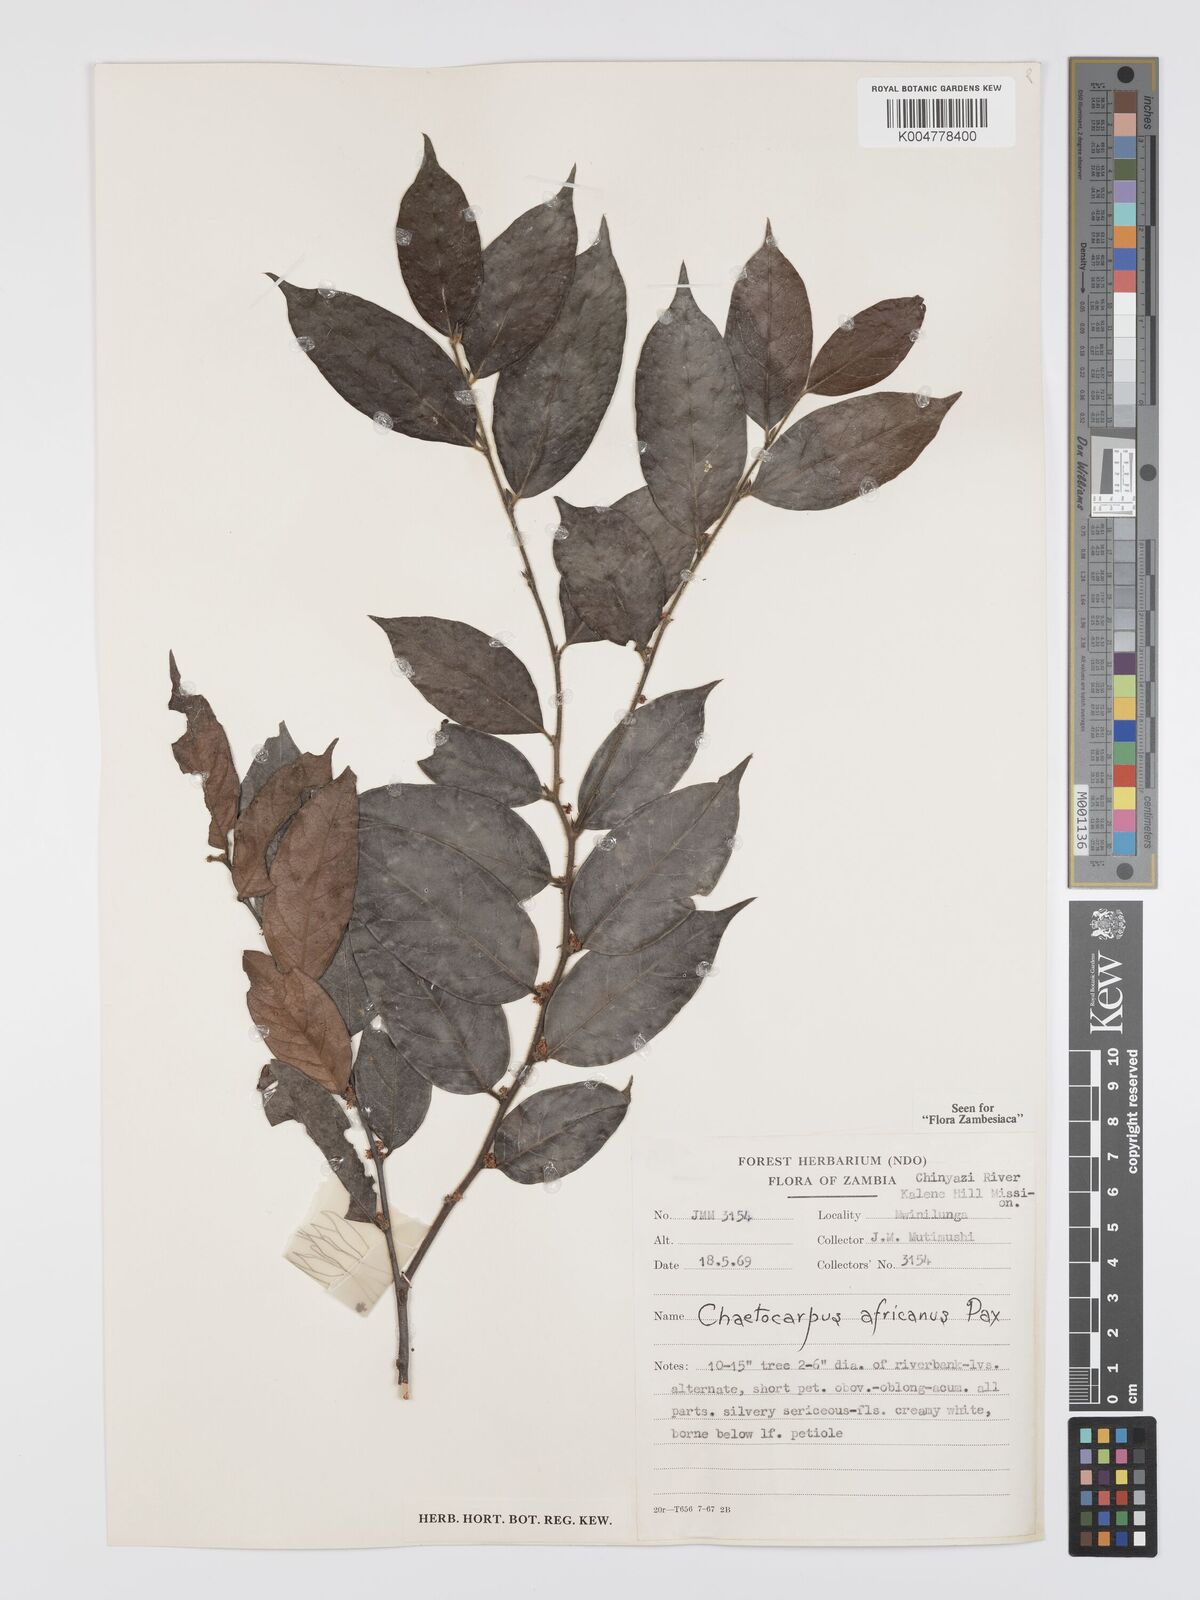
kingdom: Plantae
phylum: Tracheophyta
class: Magnoliopsida
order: Malpighiales
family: Peraceae
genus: Chaetocarpus
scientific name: Chaetocarpus africanus
